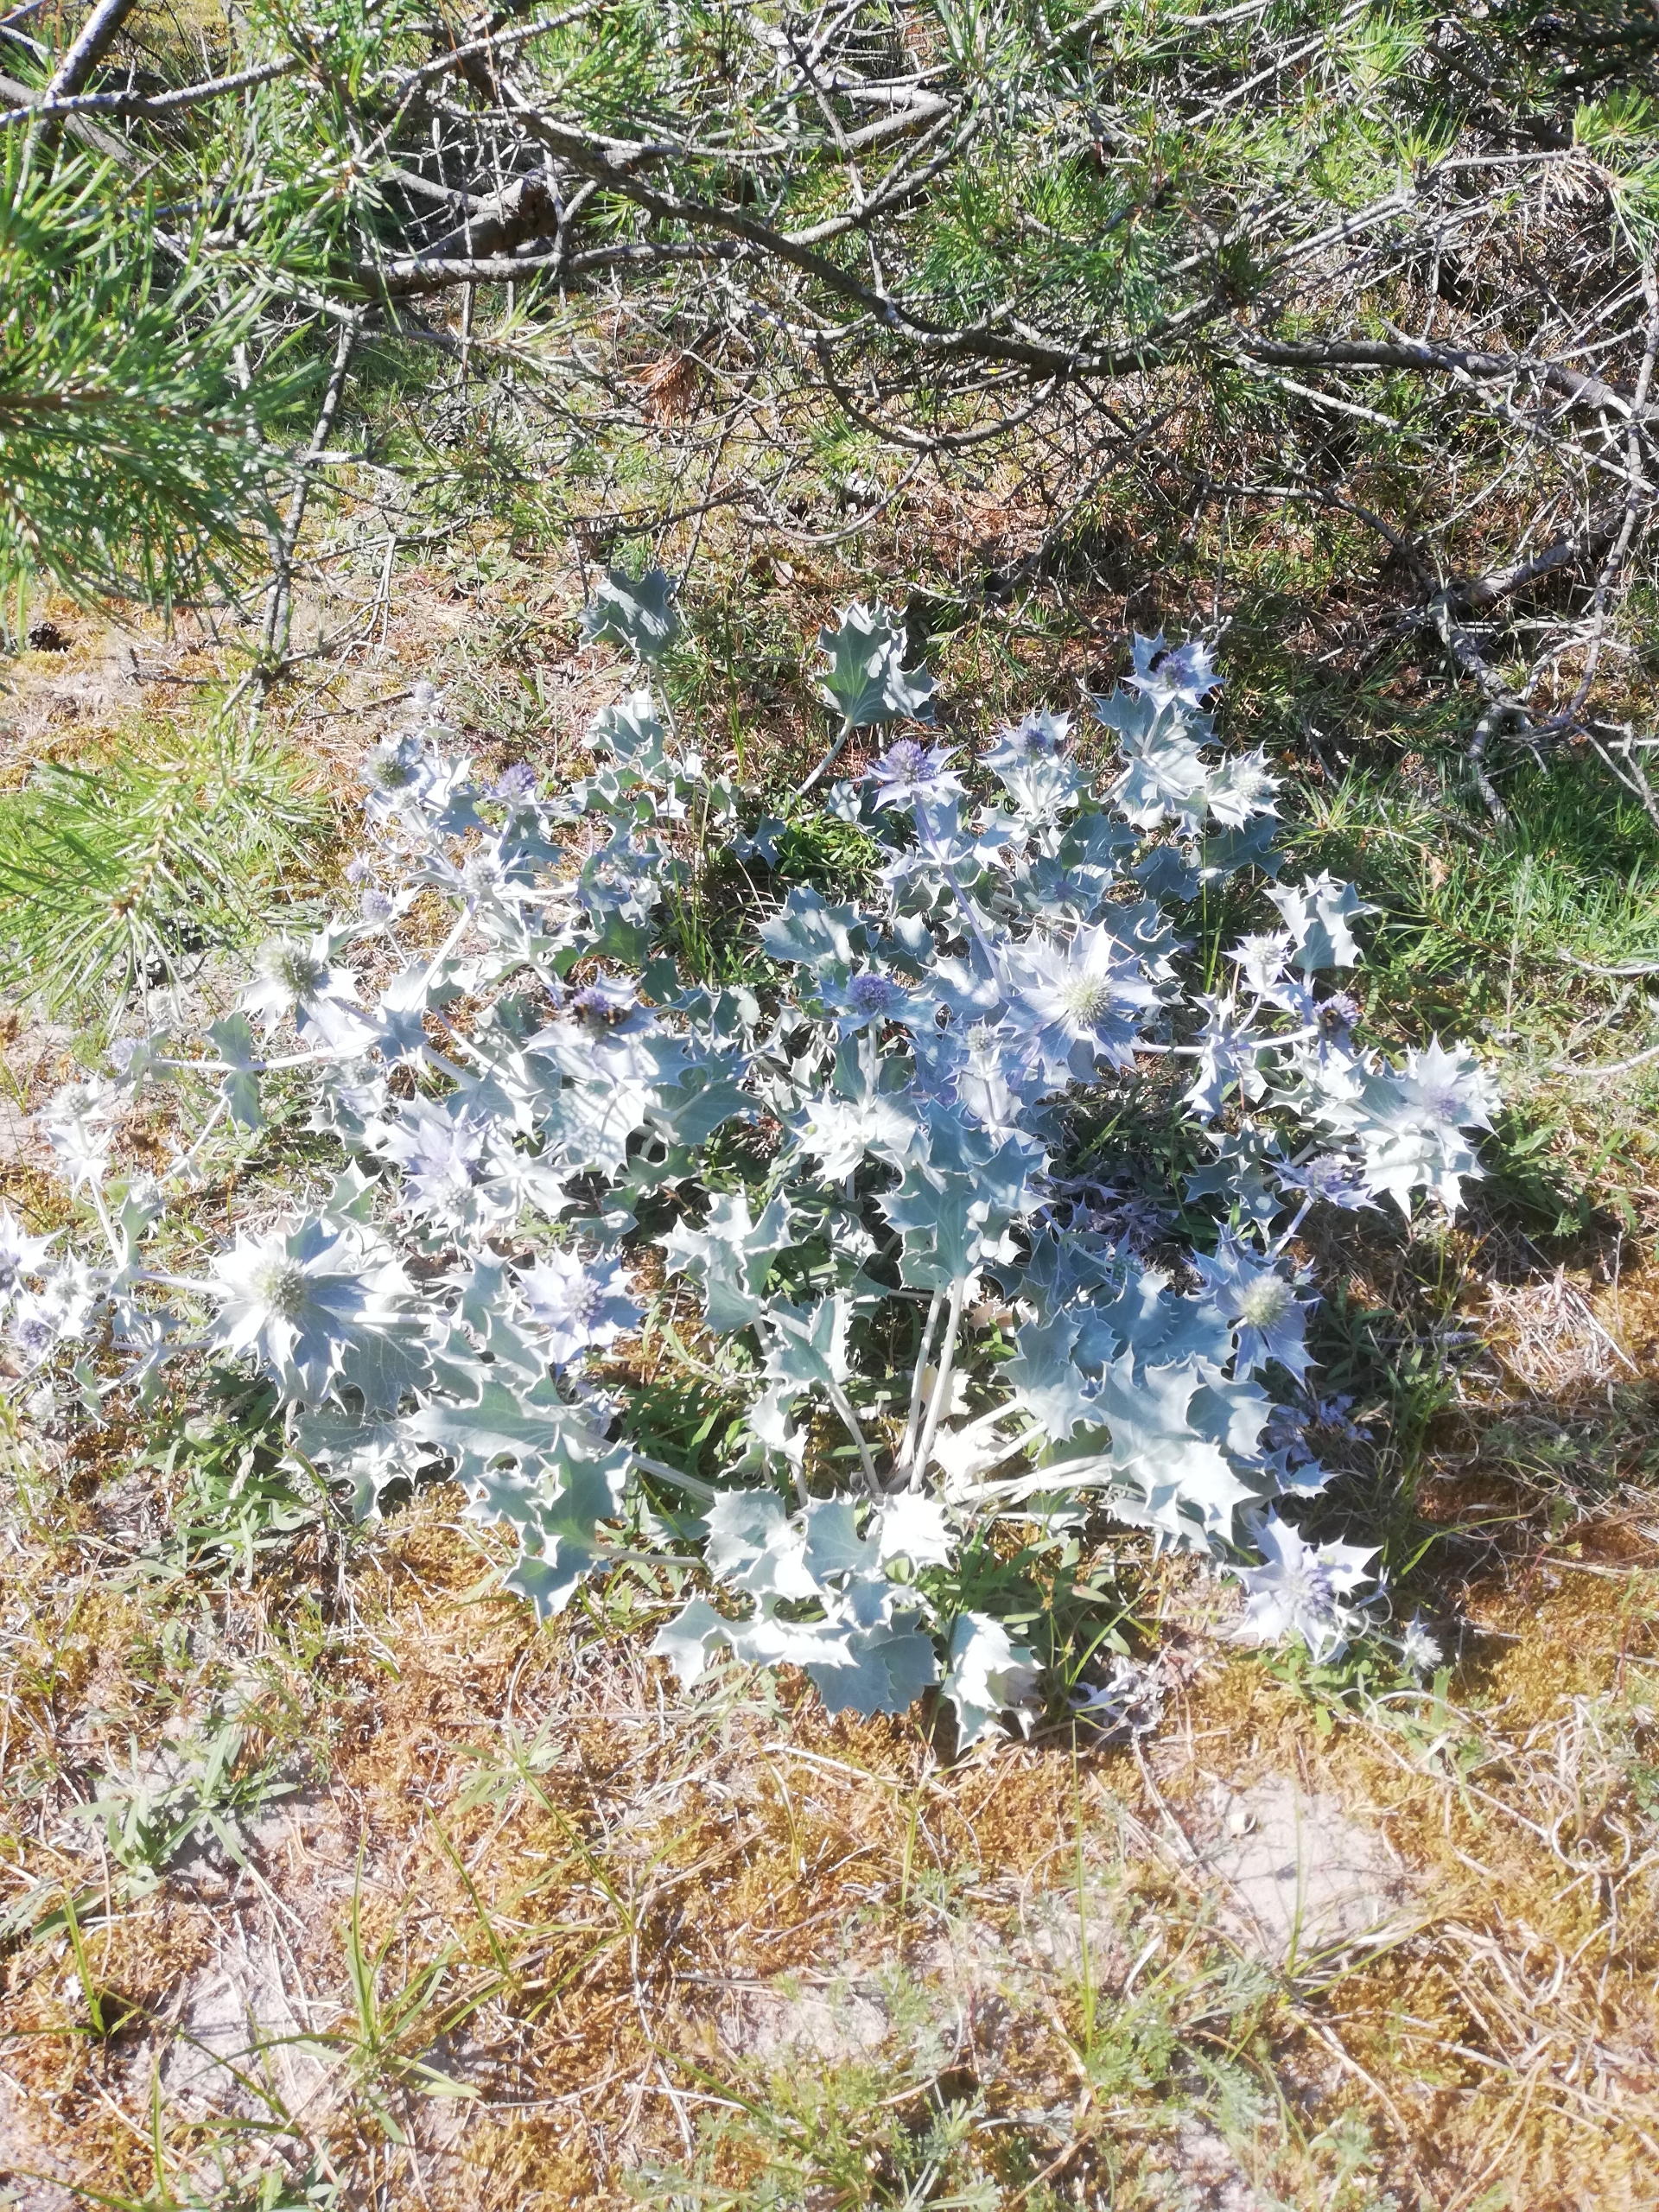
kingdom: Plantae
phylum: Tracheophyta
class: Magnoliopsida
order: Apiales
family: Apiaceae
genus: Eryngium
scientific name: Eryngium maritimum
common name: Strand-mandstro
